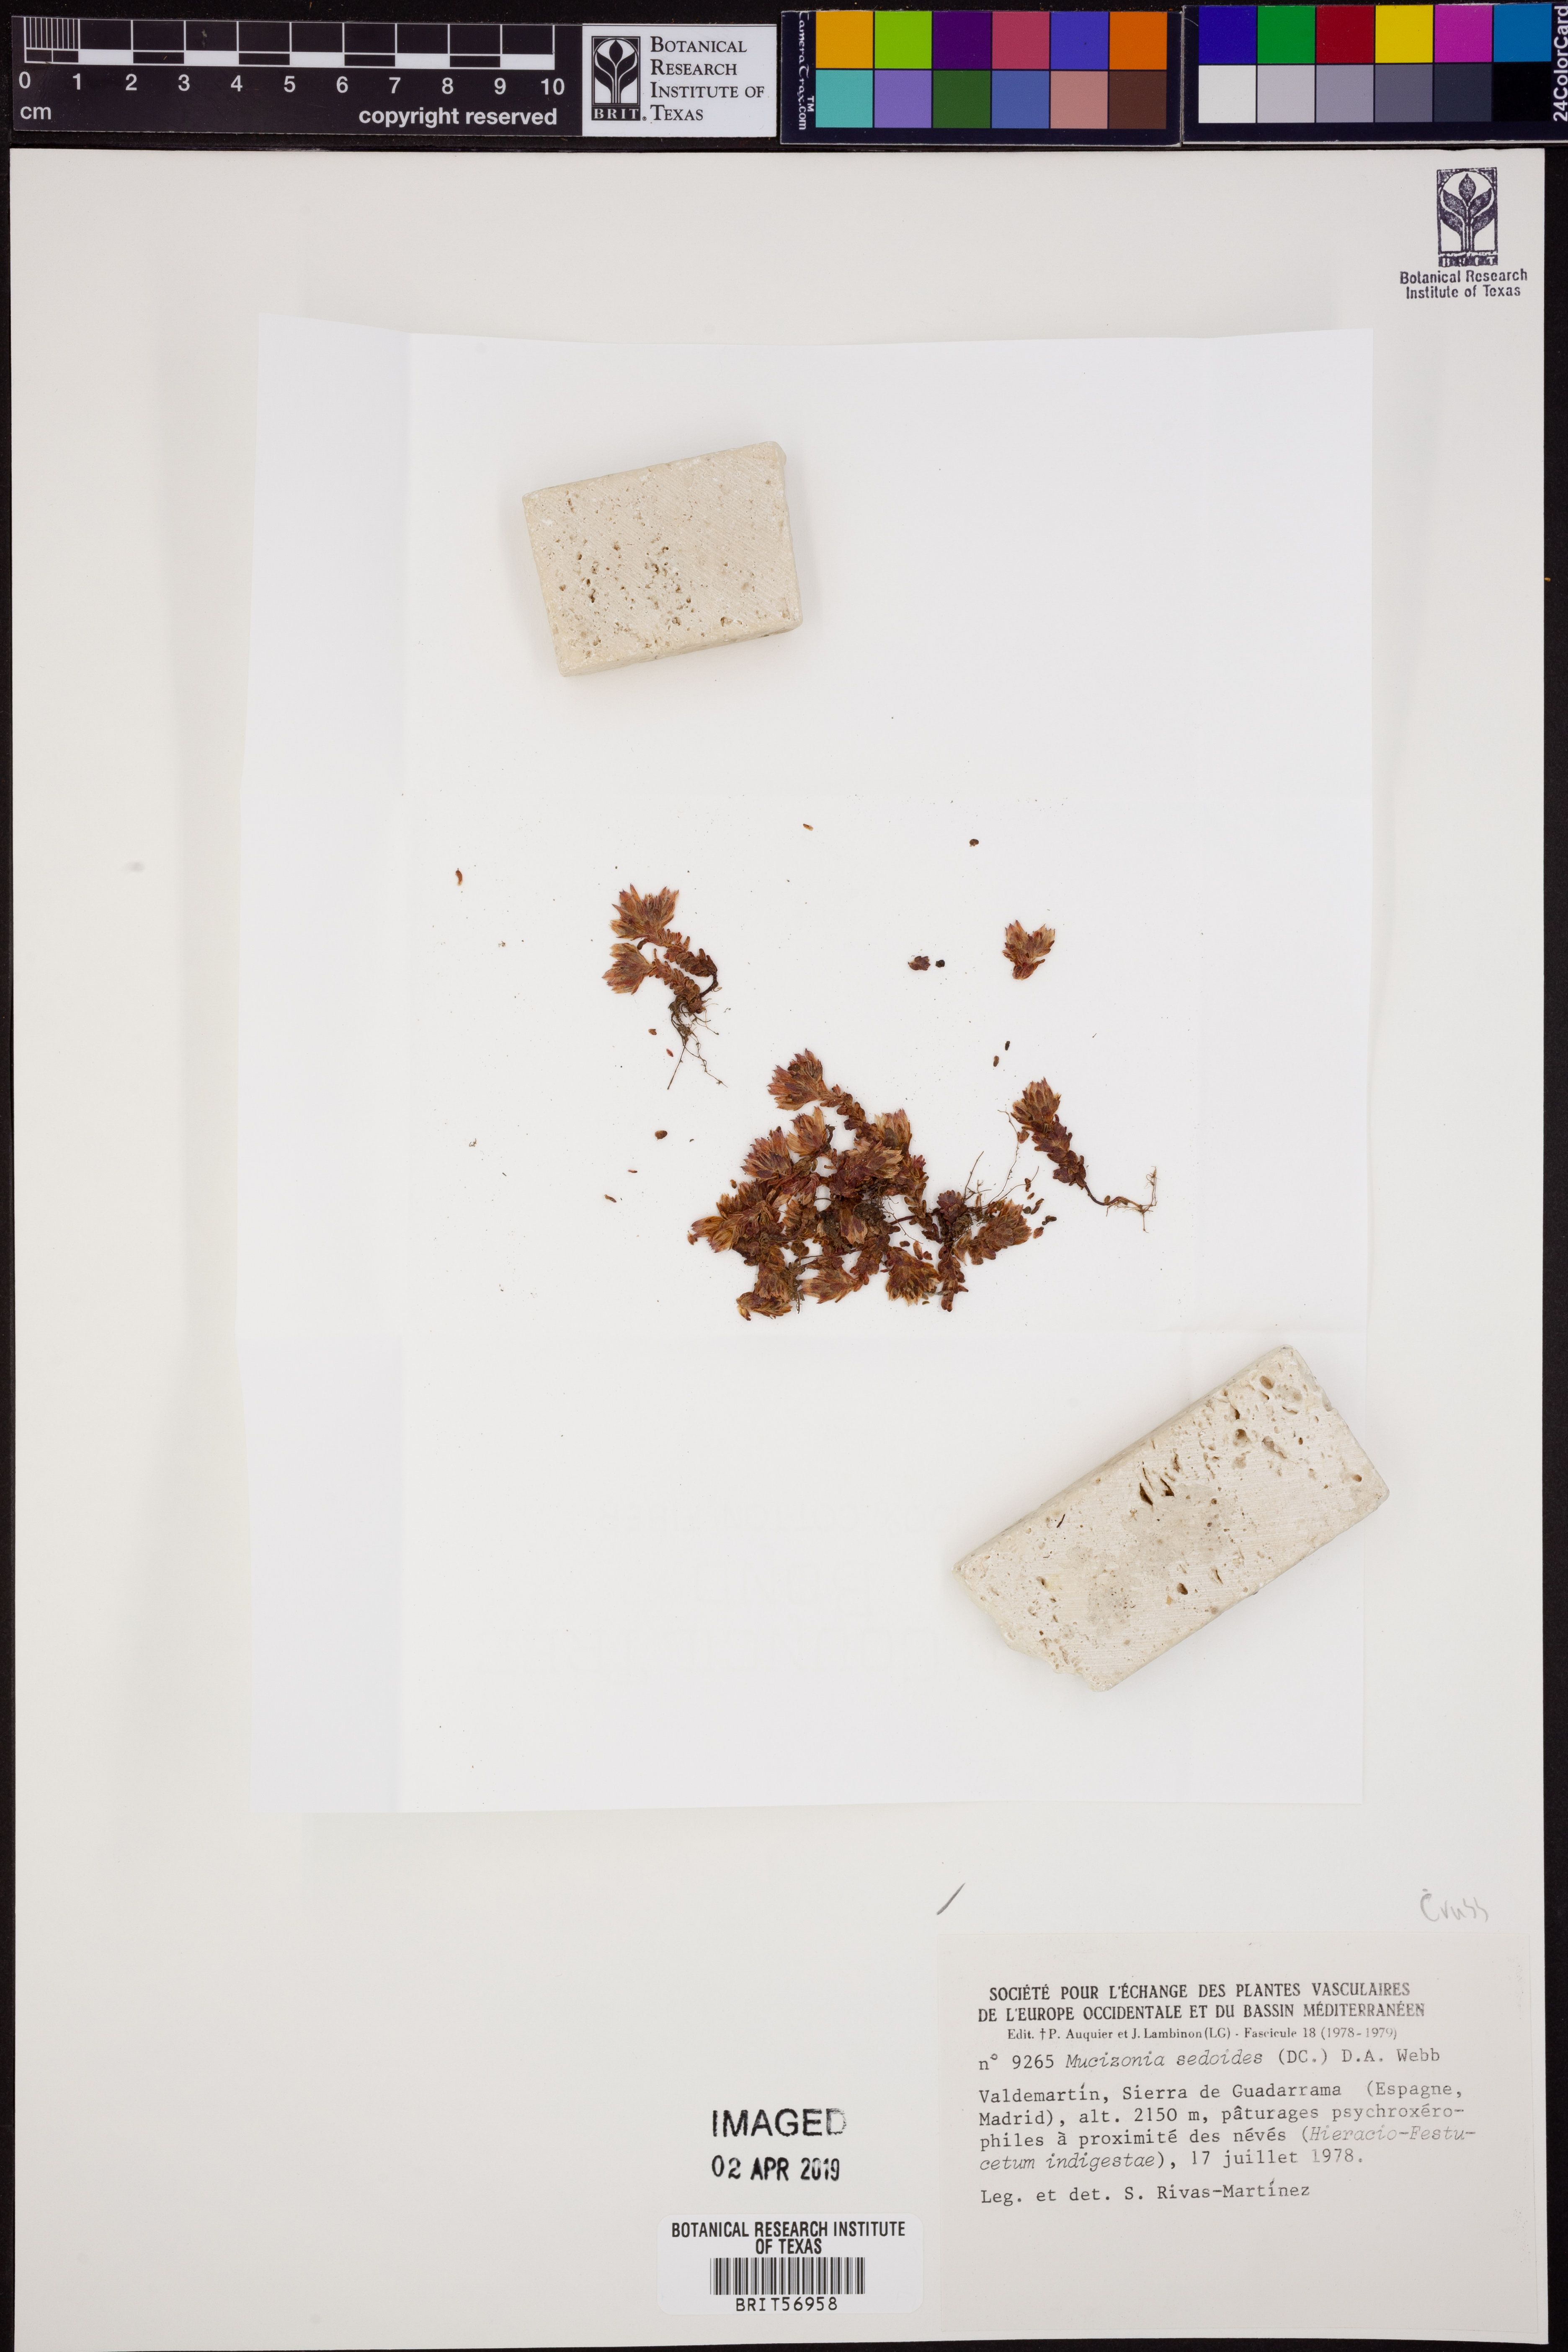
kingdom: Plantae
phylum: Tracheophyta
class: Magnoliopsida
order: Saxifragales
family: Crassulaceae
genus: Sedum
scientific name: Sedum candollei
